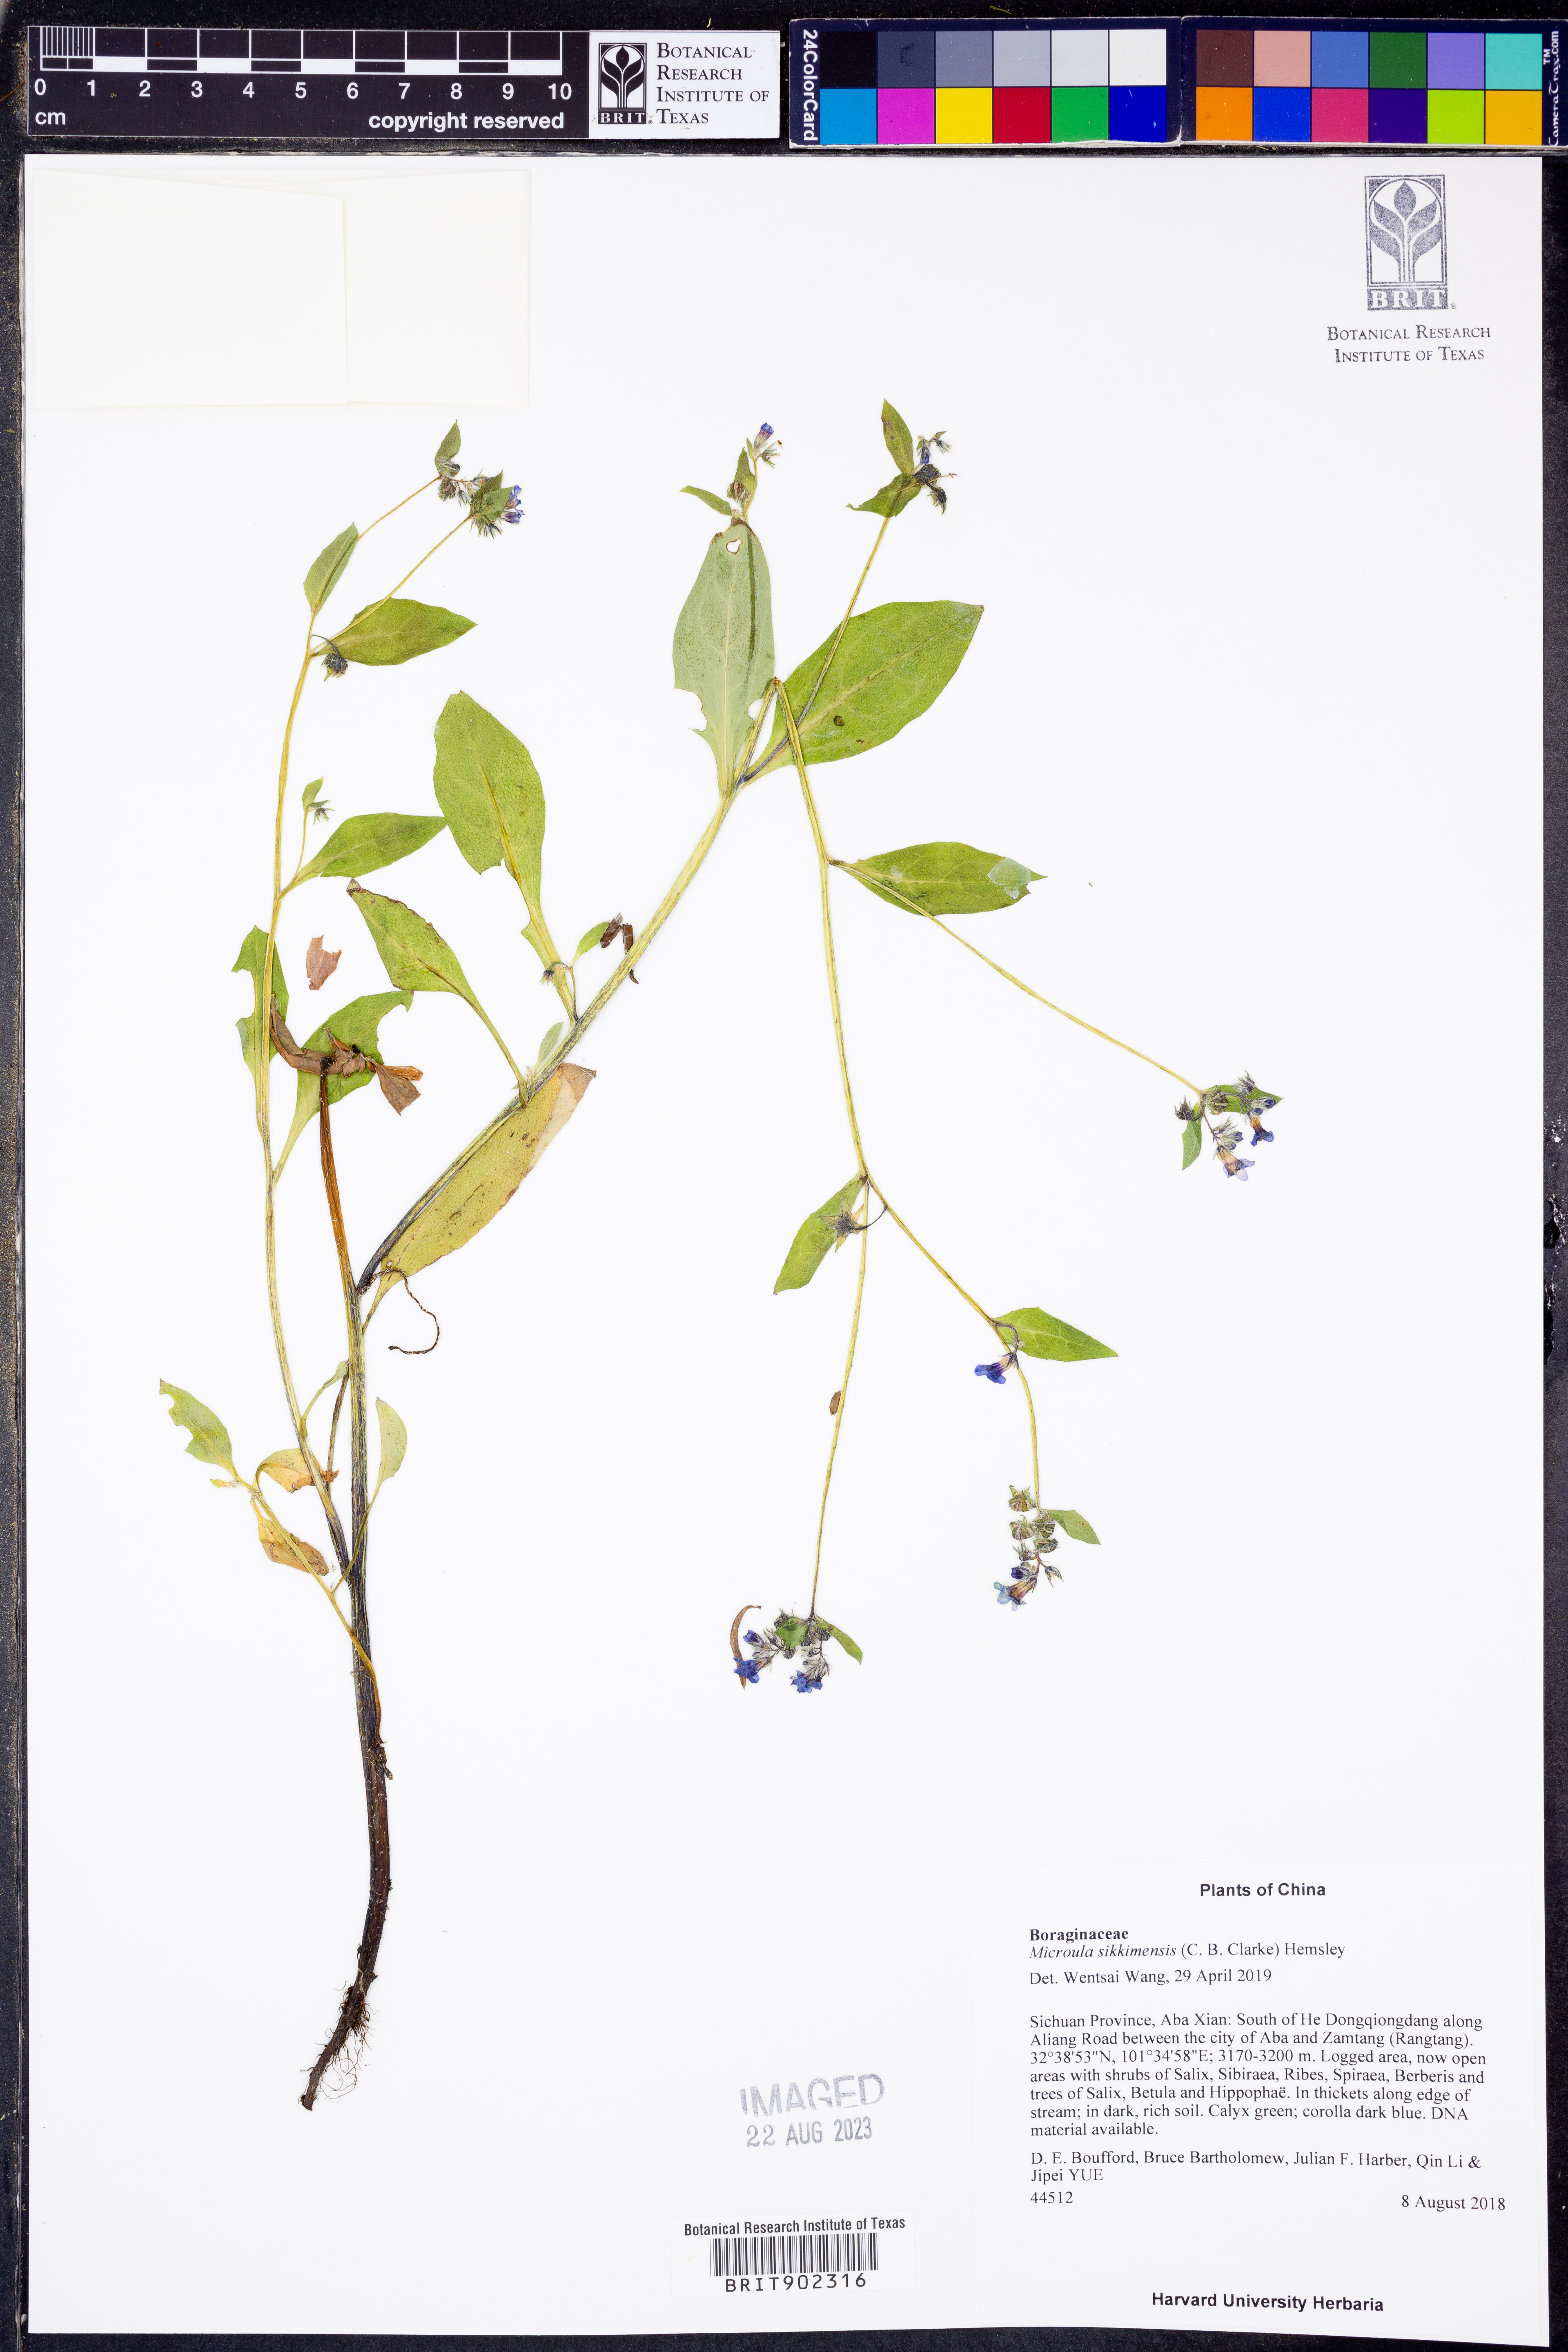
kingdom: Plantae
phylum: Tracheophyta
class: Magnoliopsida
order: Boraginales
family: Boraginaceae
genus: Microula
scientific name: Microula sikkimensis
